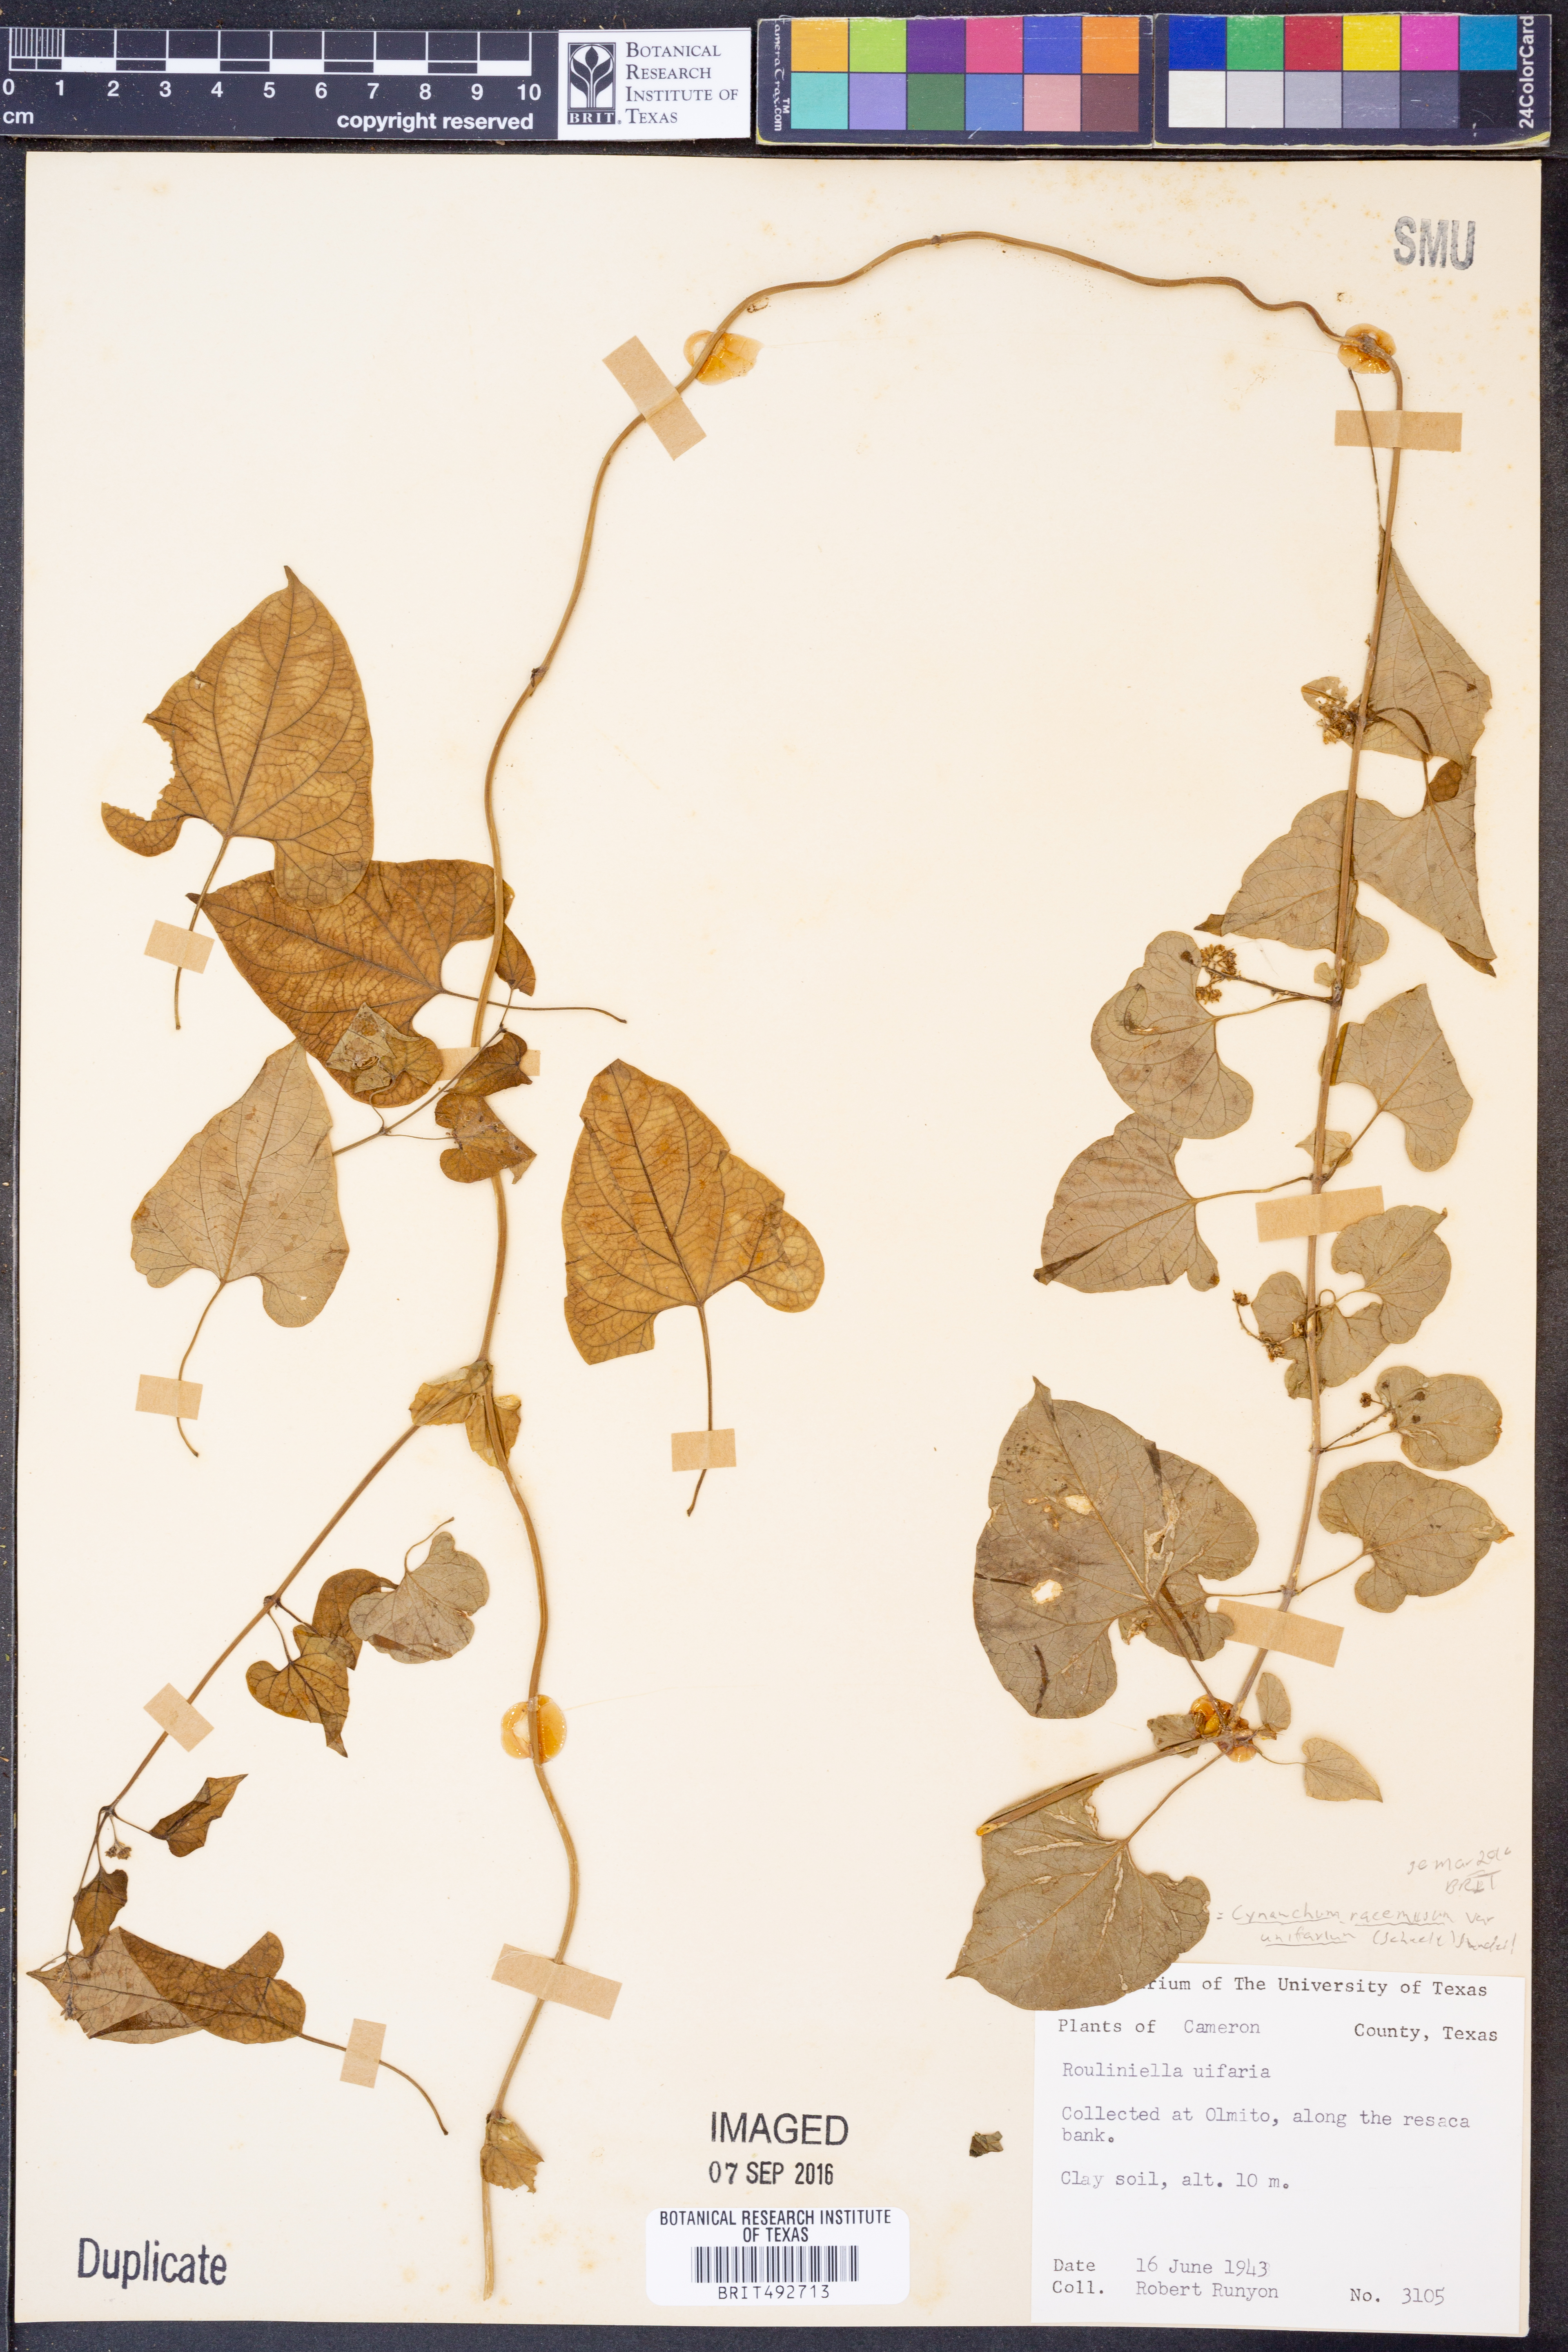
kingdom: Plantae
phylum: Tracheophyta
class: Magnoliopsida
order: Gentianales
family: Apocynaceae
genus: Cynanchum
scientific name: Cynanchum racemosum
